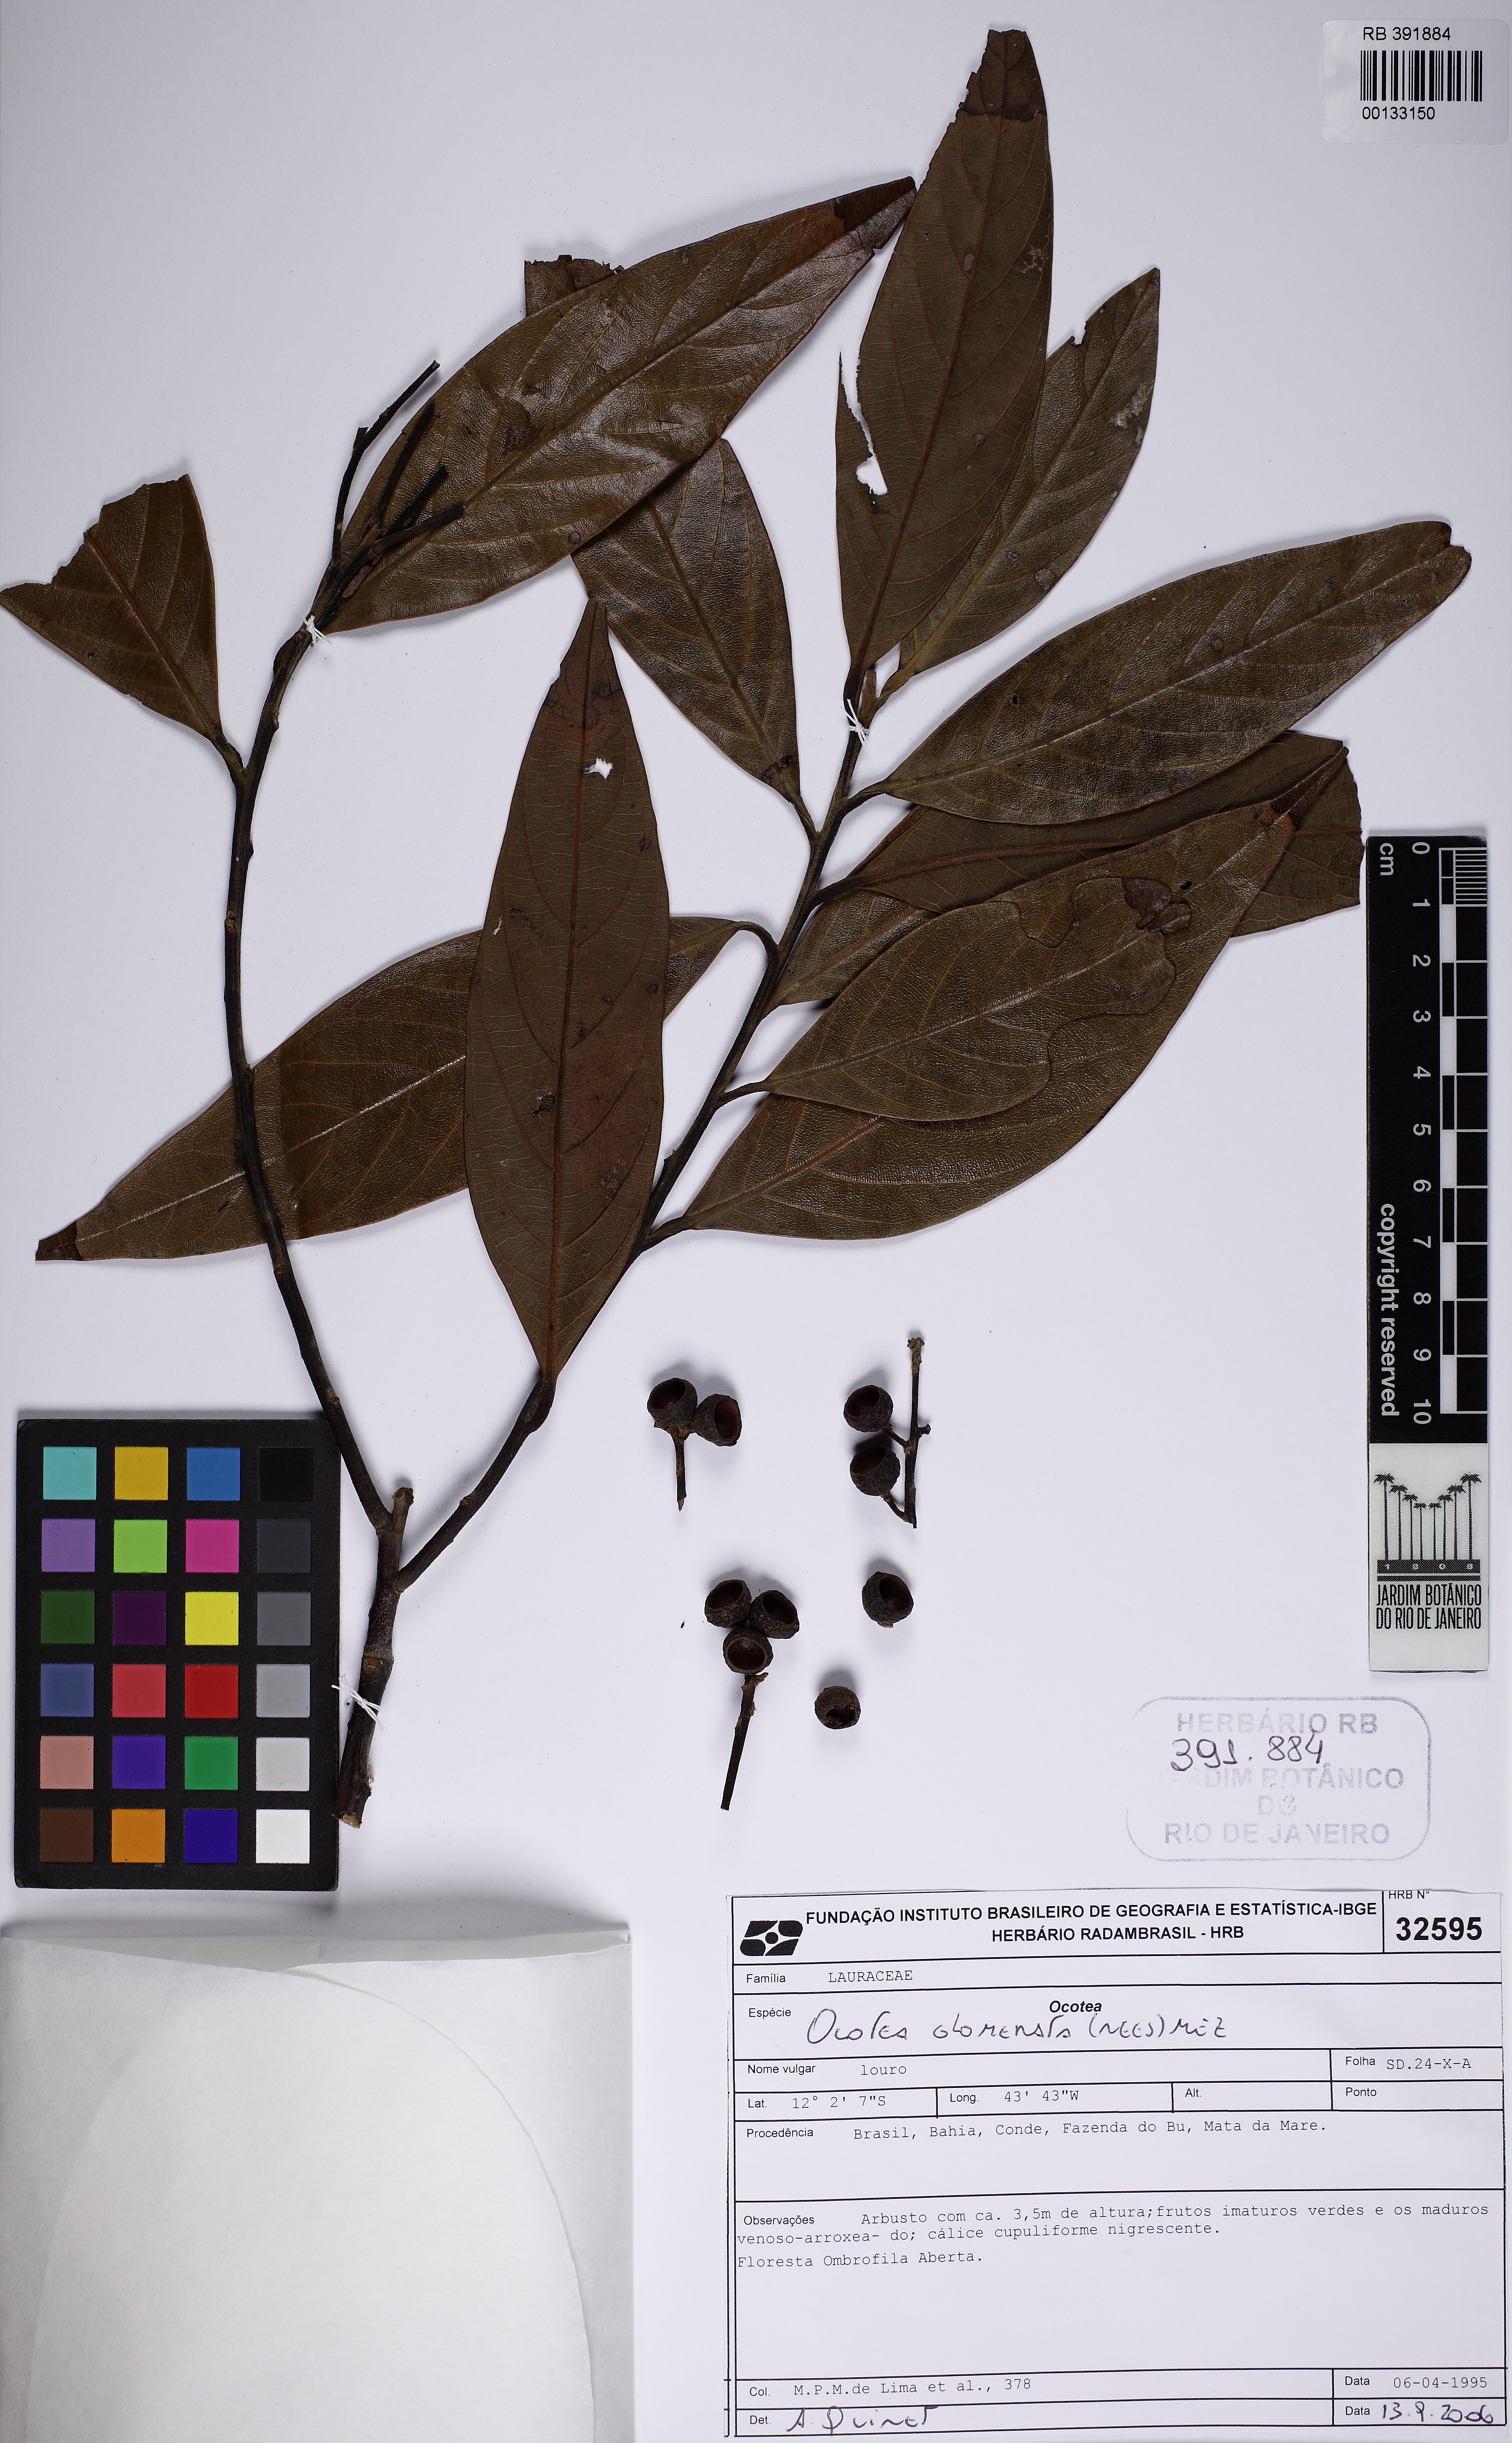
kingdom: Plantae
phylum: Tracheophyta
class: Magnoliopsida
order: Laurales
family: Lauraceae
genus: Ocotea
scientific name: Ocotea glomerata
